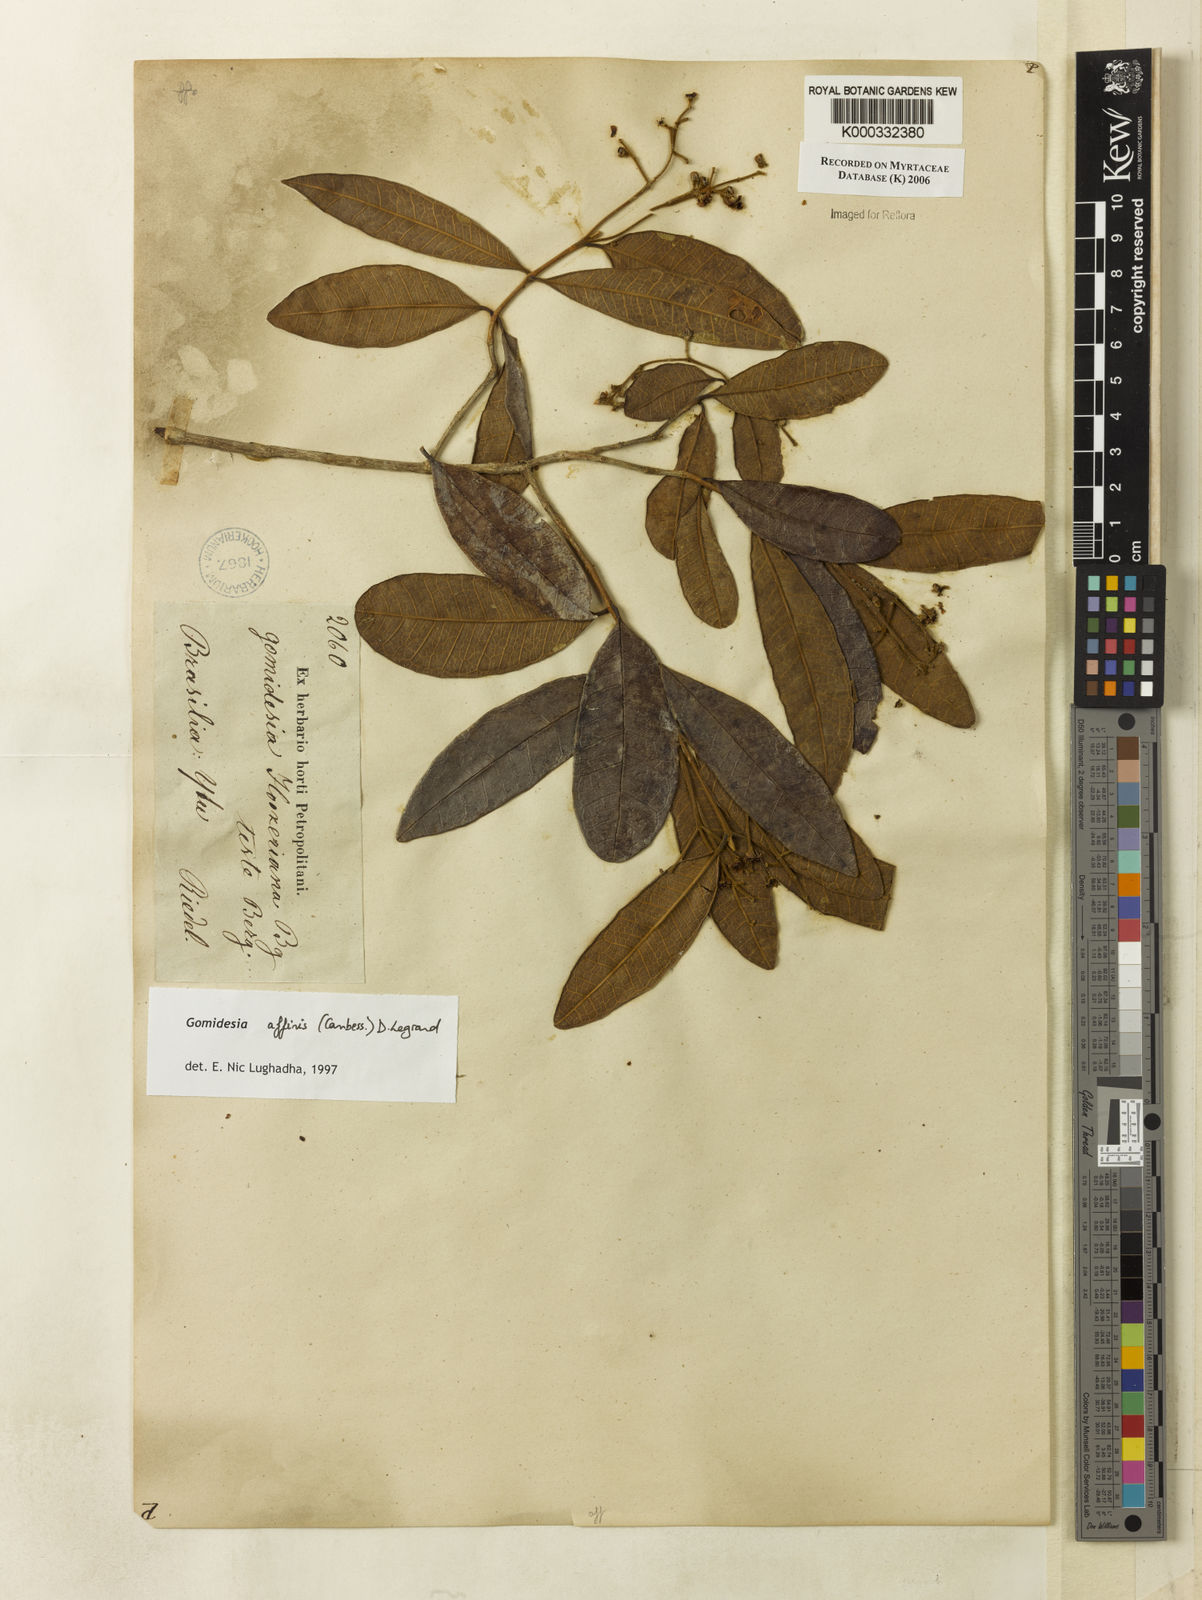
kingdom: Plantae
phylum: Tracheophyta
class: Magnoliopsida
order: Myrtales
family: Myrtaceae
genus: Myrcia
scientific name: Myrcia hebepetala
